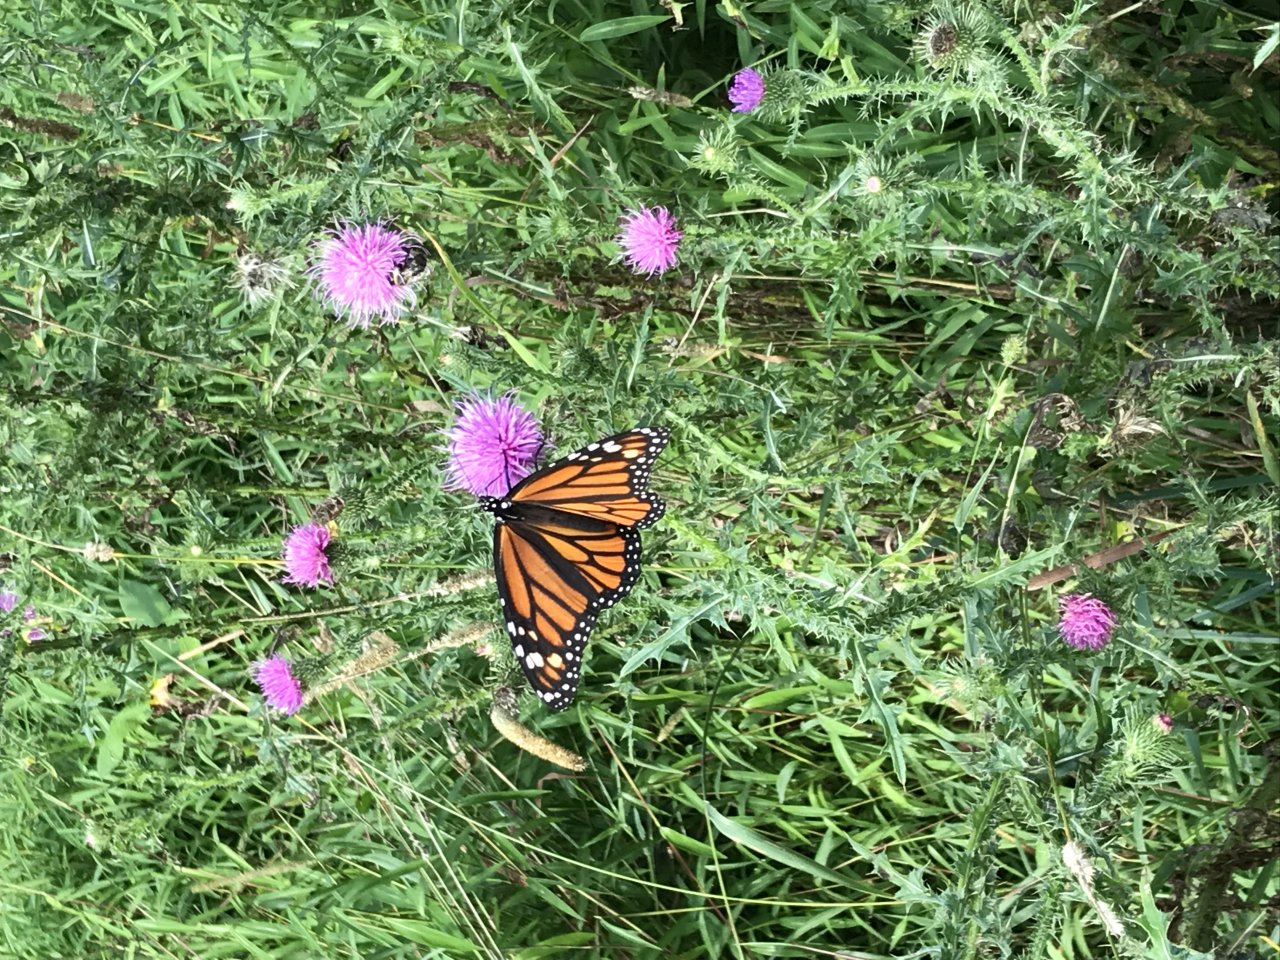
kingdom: Animalia
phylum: Arthropoda
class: Insecta
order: Lepidoptera
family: Nymphalidae
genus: Danaus
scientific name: Danaus plexippus
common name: Monarch
